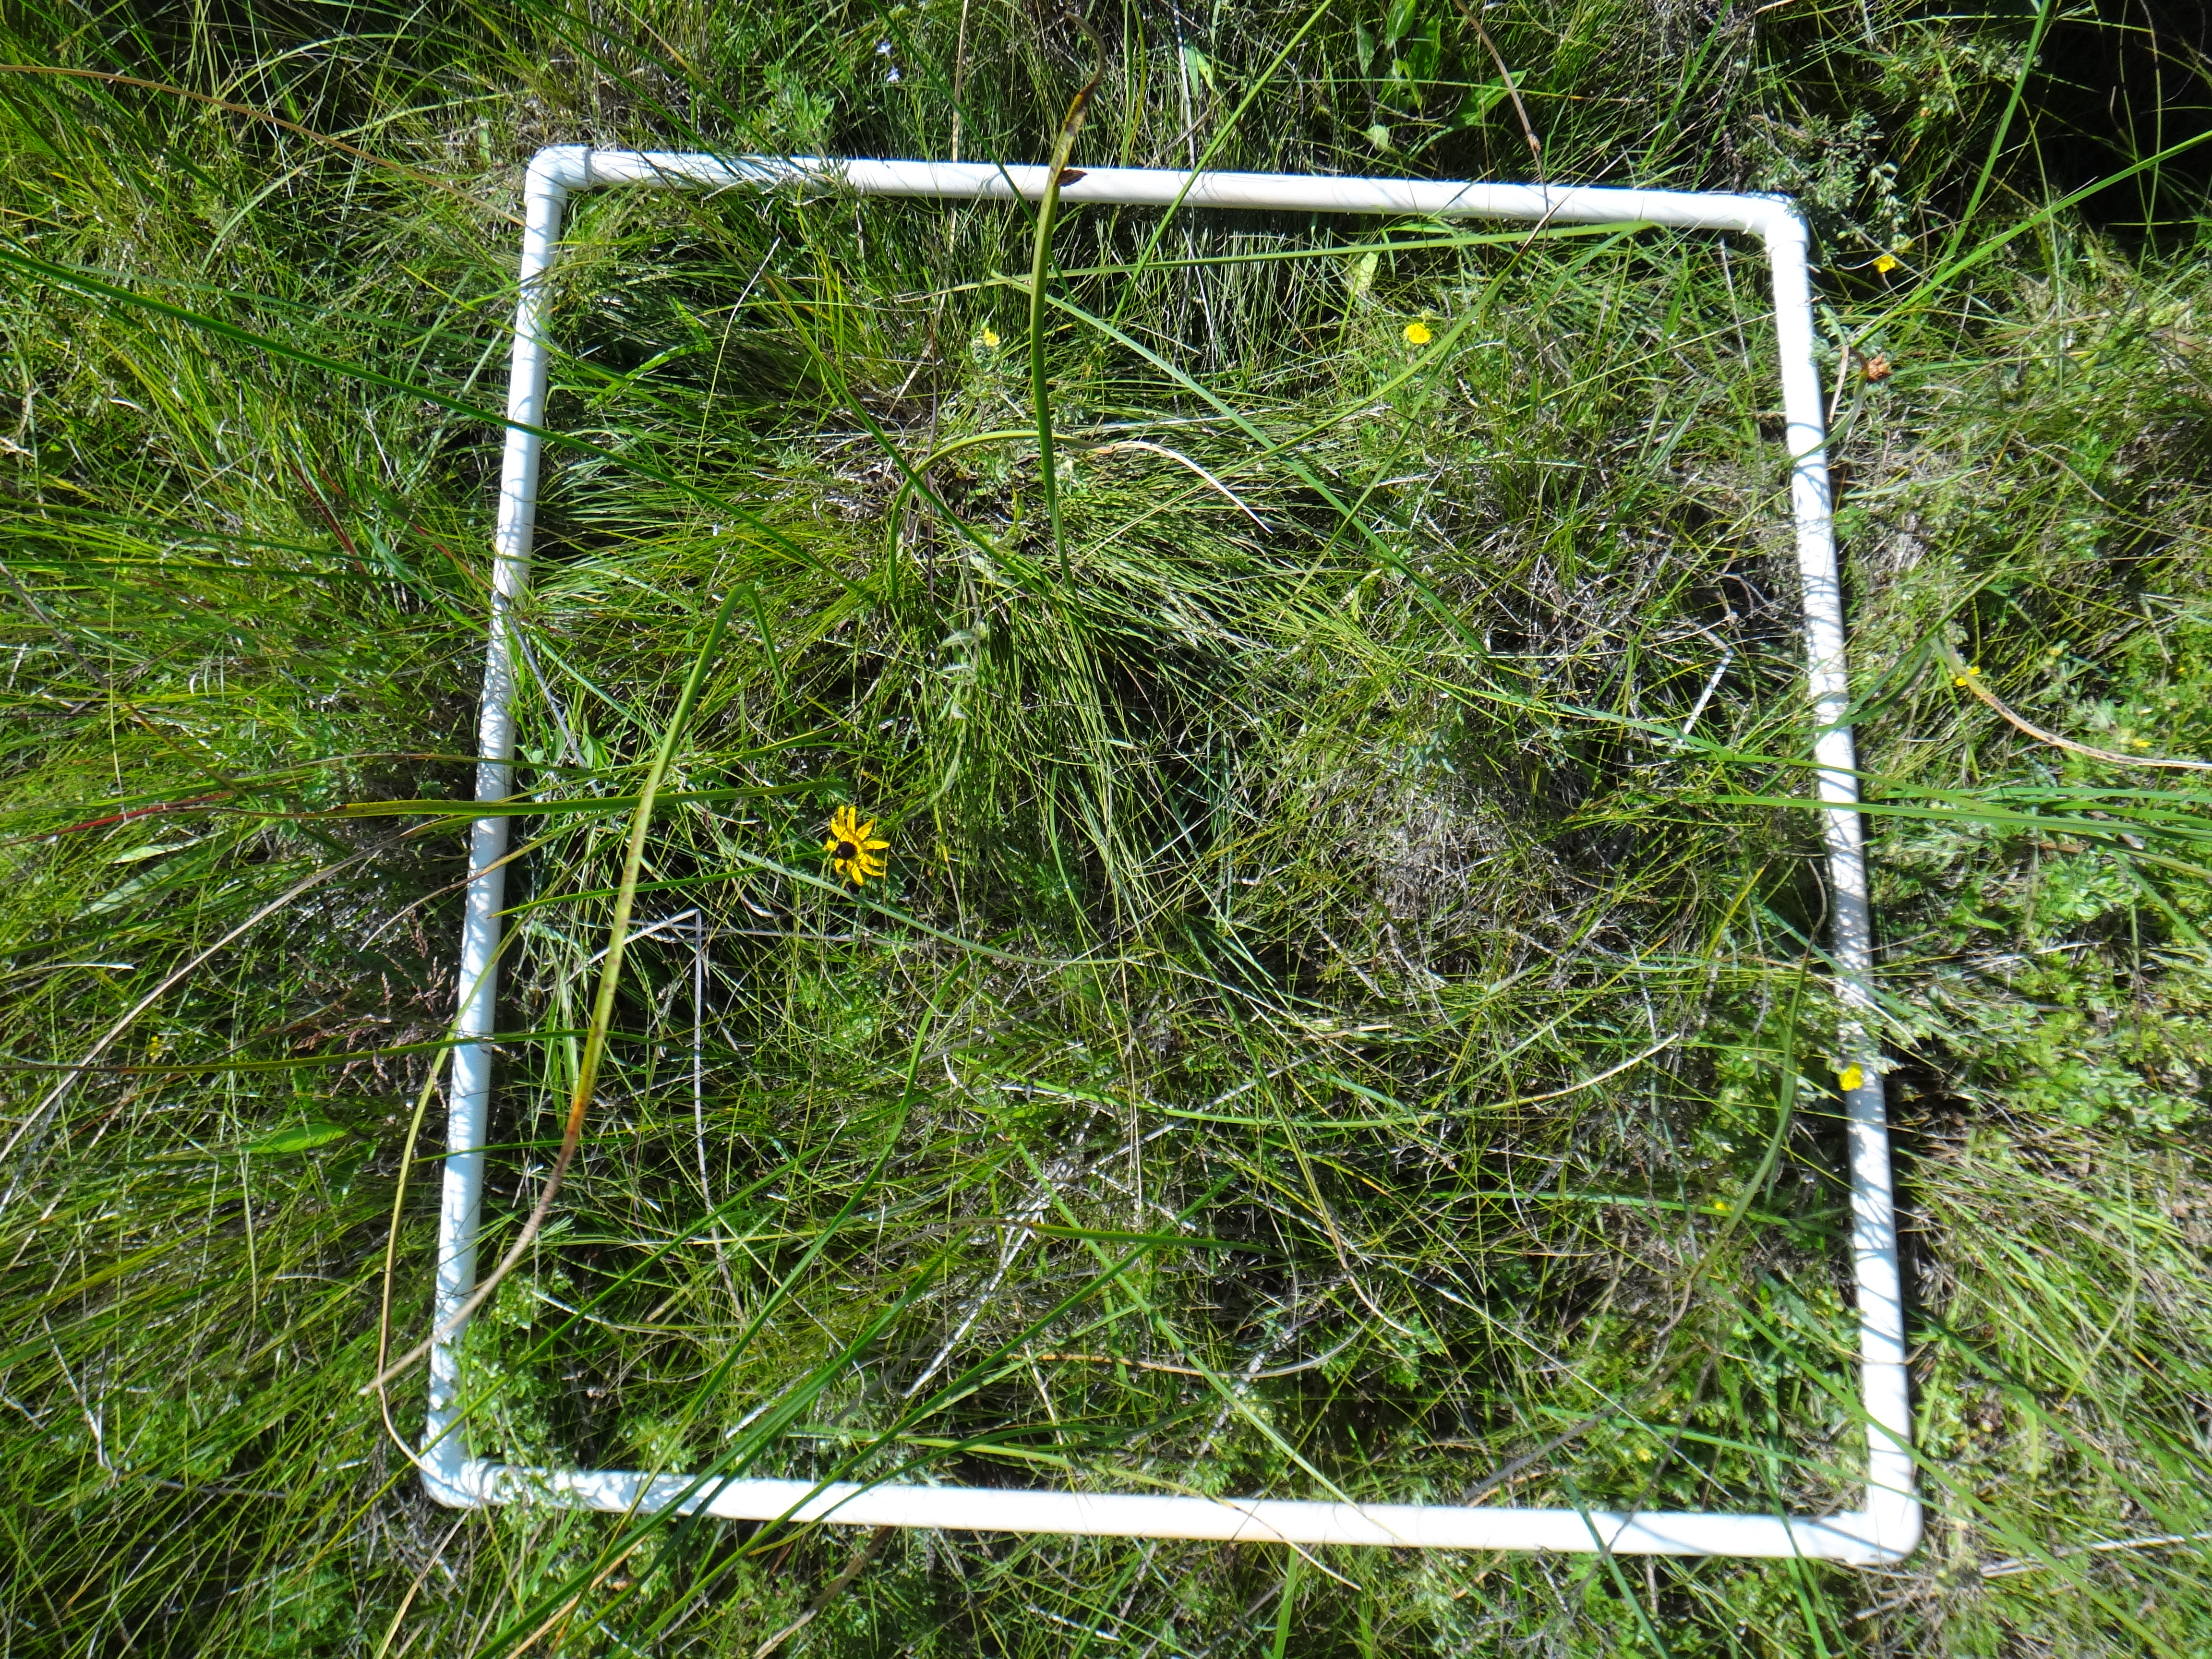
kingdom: Plantae
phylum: Tracheophyta
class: Magnoliopsida
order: Rosales
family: Rosaceae
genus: Dasiphora
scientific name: Dasiphora fruticosa
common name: Shrubby cinquefoil
